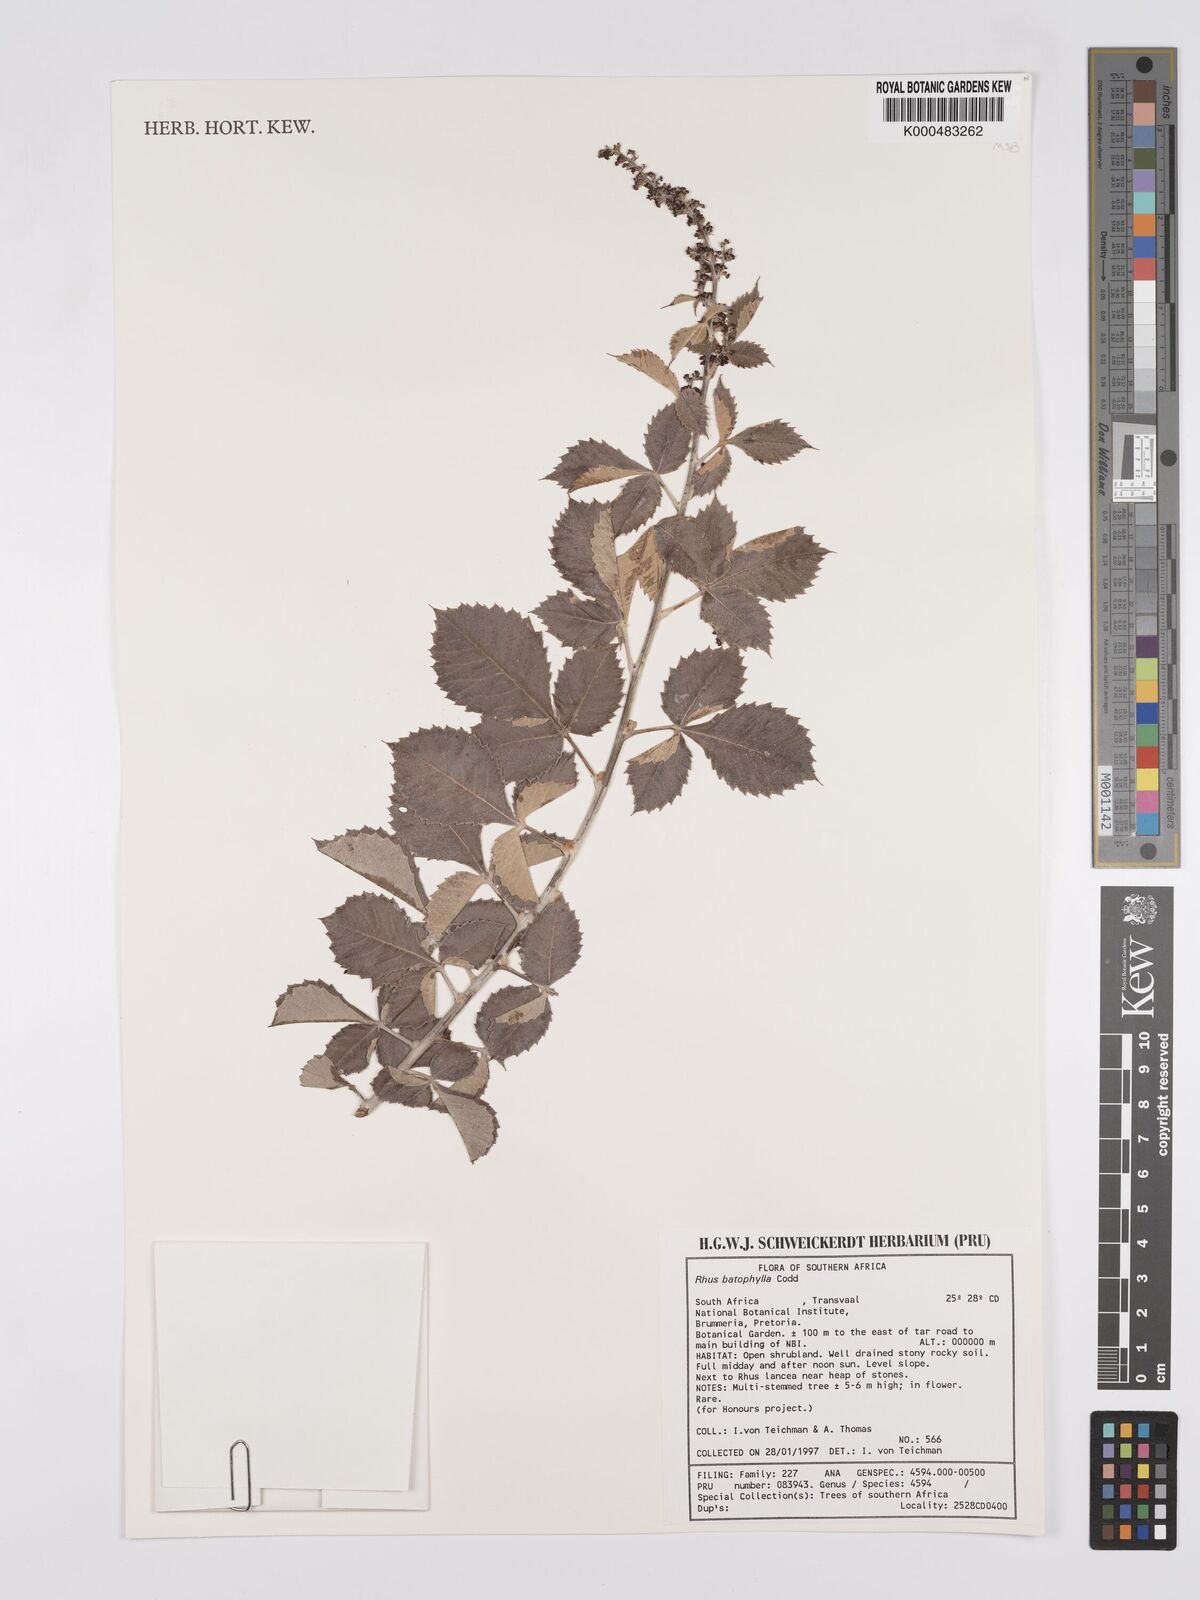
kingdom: Plantae
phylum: Tracheophyta
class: Magnoliopsida
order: Sapindales
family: Anacardiaceae
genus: Searsia
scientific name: Searsia batophylla
